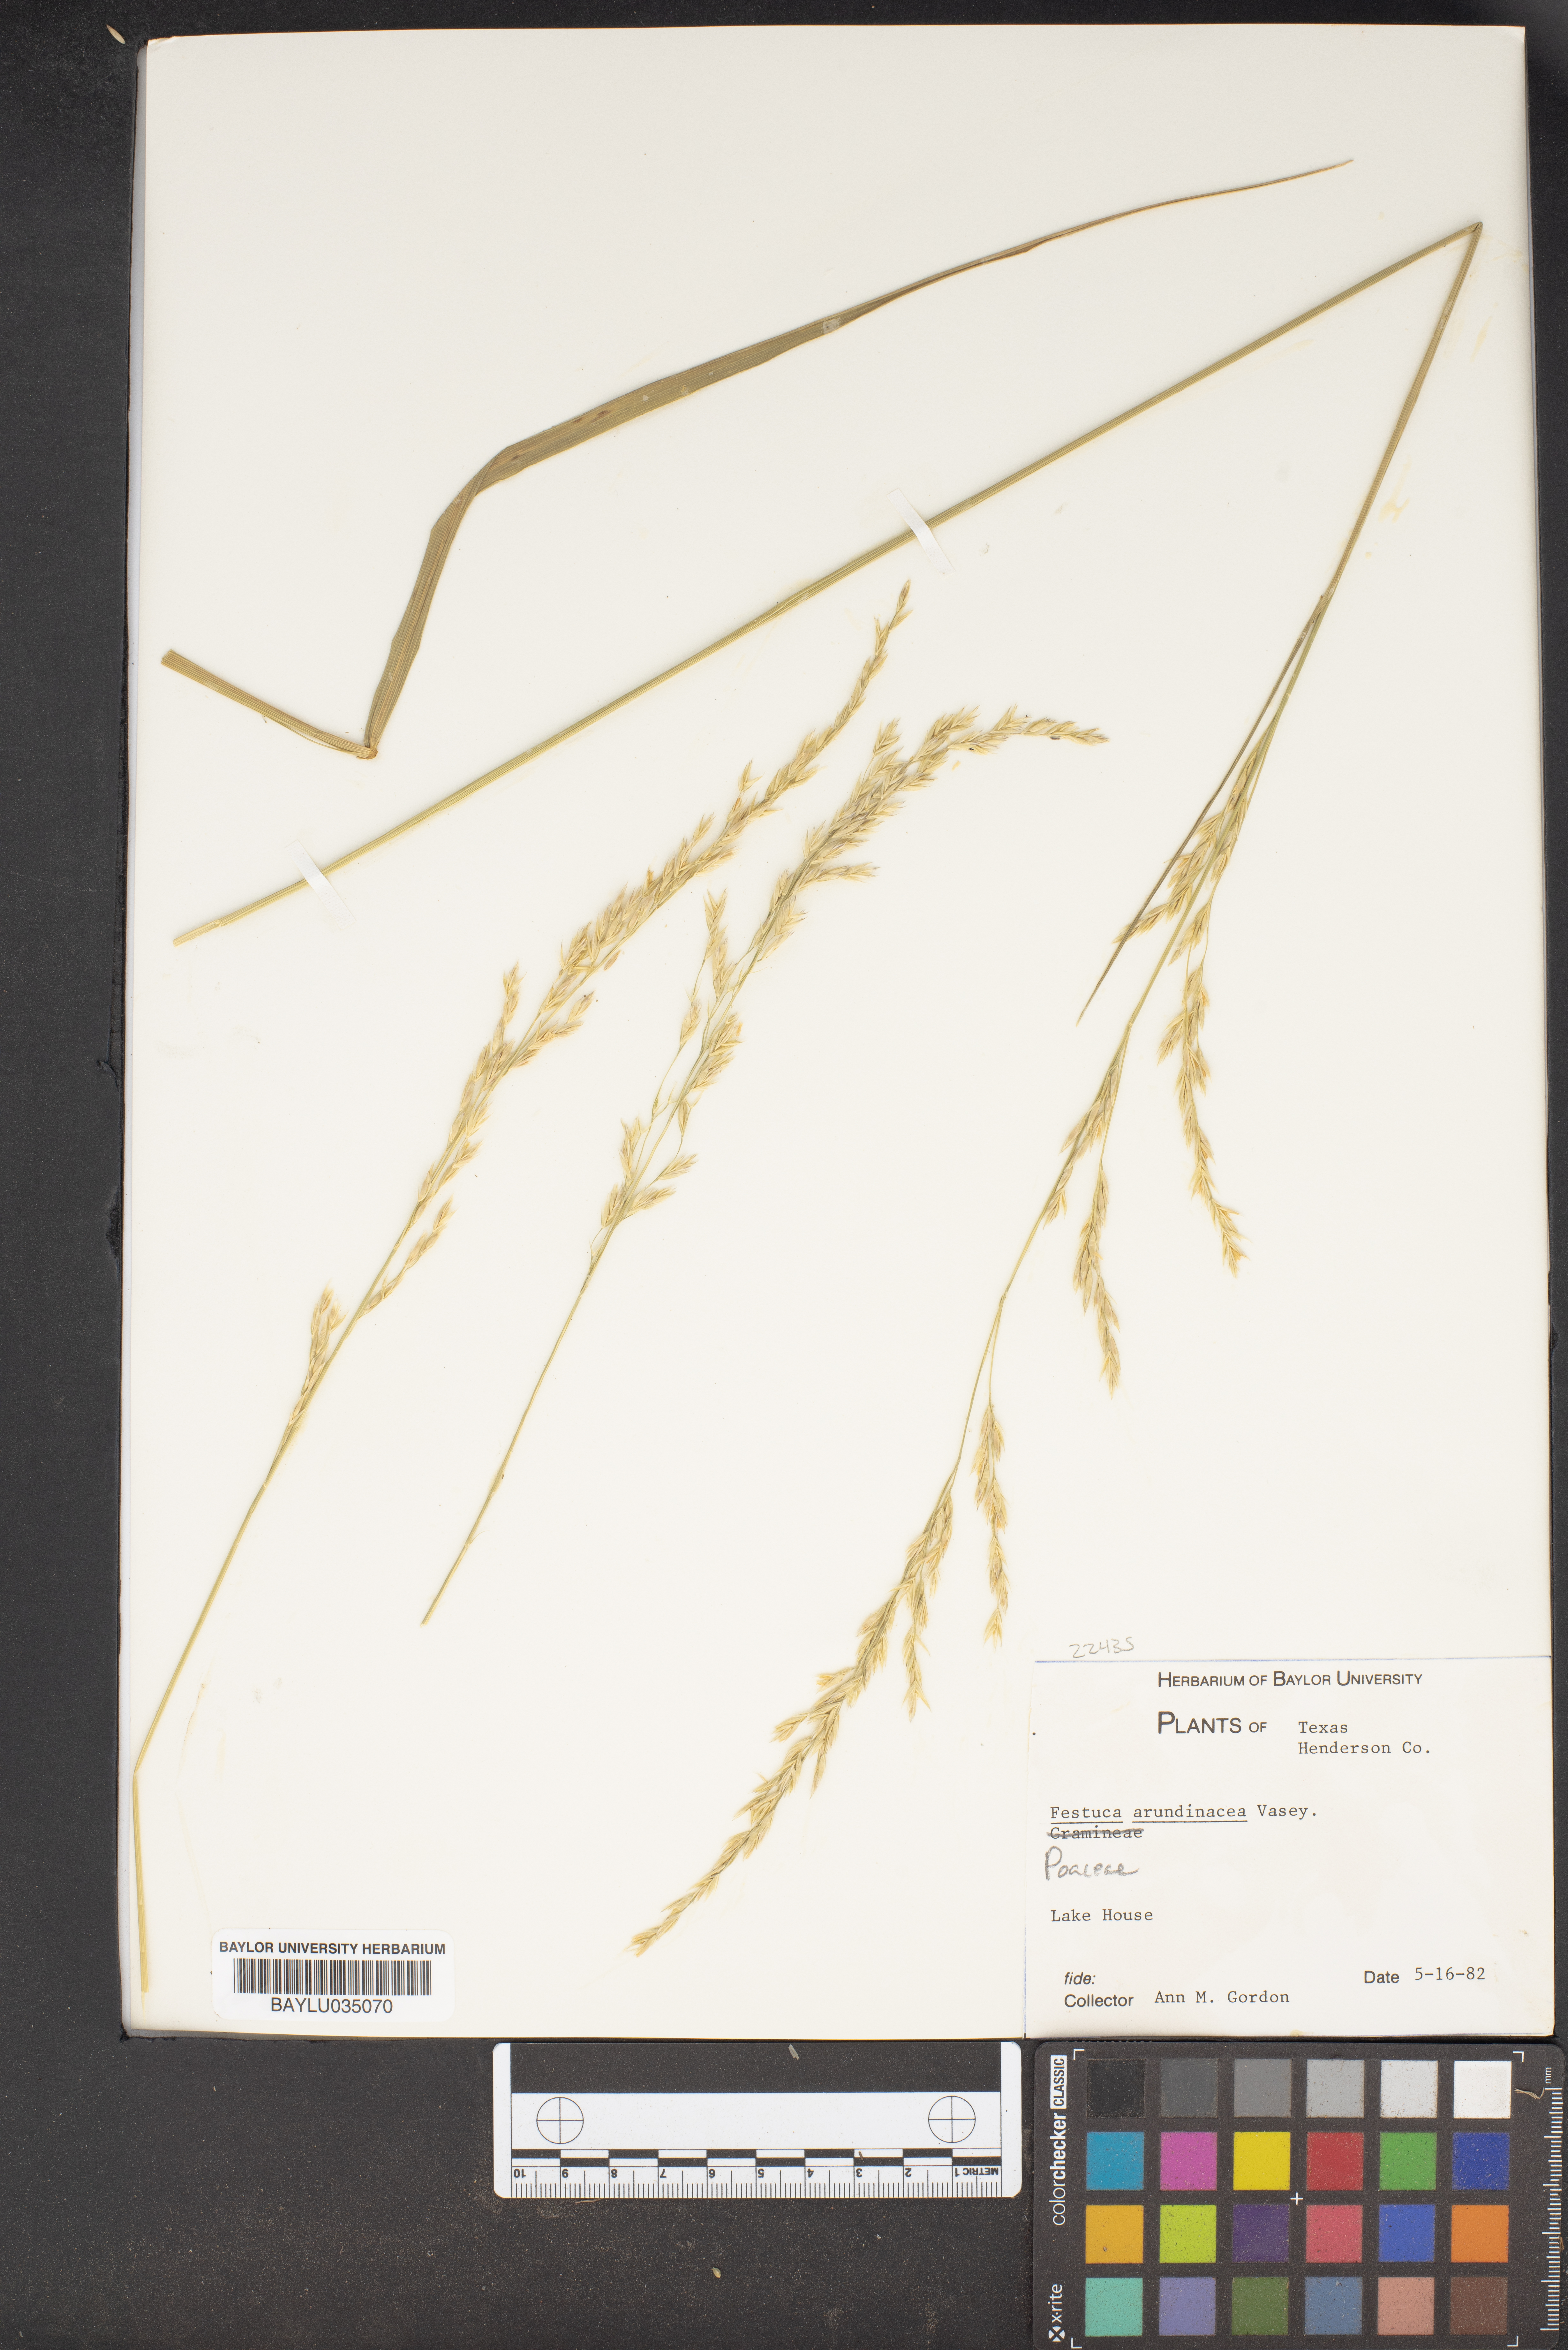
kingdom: Plantae
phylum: Tracheophyta
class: Liliopsida
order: Poales
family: Poaceae
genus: Lolium
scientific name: Lolium arundinaceum
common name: Reed fescue
